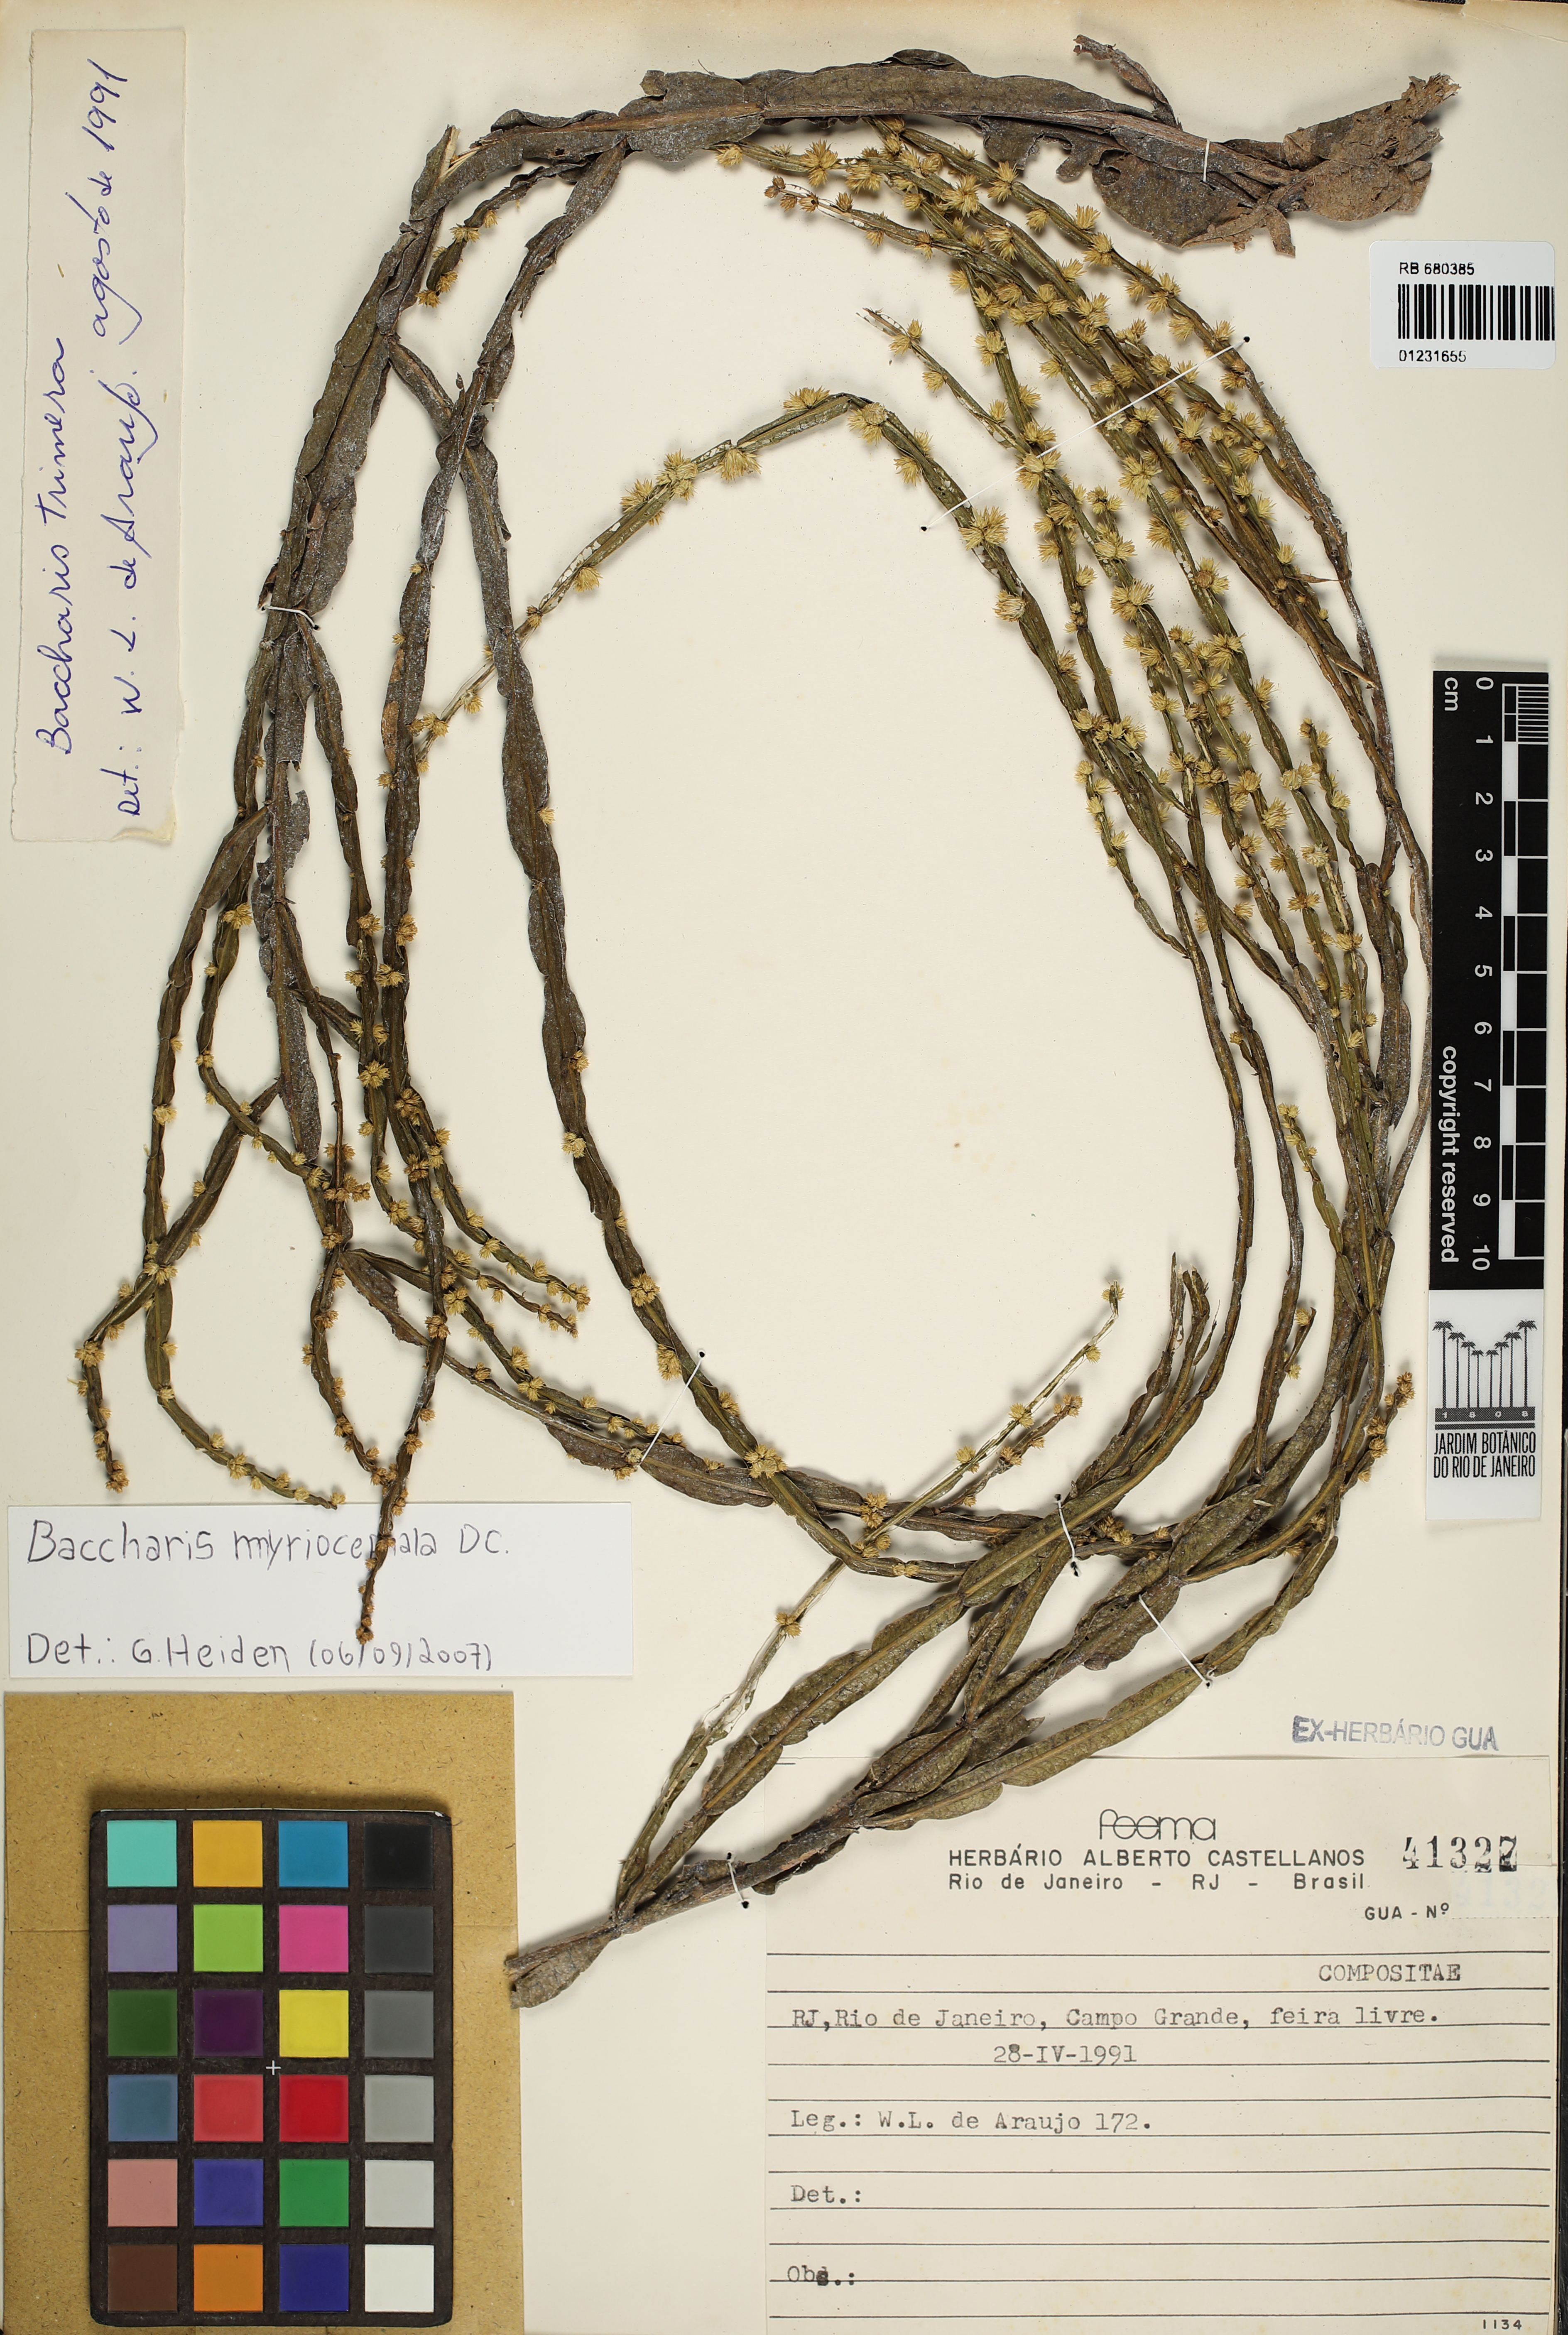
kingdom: Plantae
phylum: Tracheophyta
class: Magnoliopsida
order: Asterales
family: Asteraceae
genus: Baccharis
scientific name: Baccharis myriocephala
